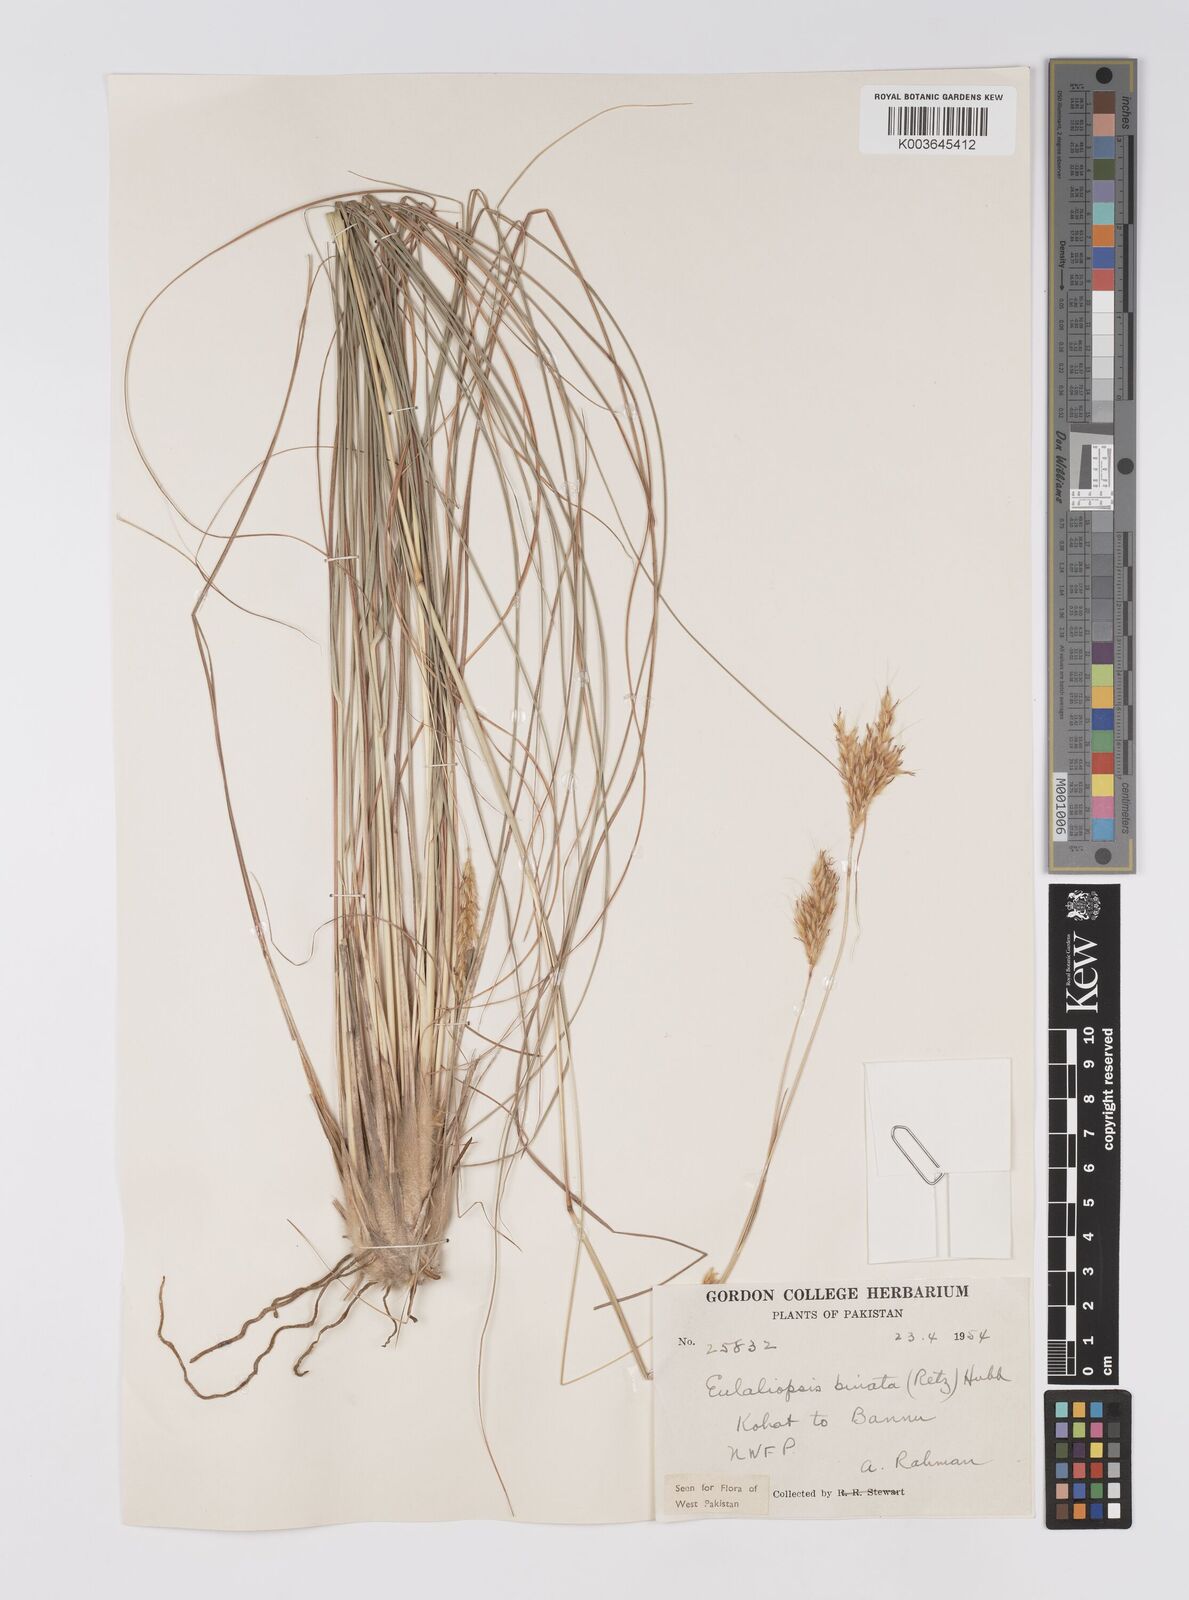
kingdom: Plantae
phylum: Tracheophyta
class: Liliopsida
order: Poales
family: Poaceae
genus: Eulaliopsis
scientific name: Eulaliopsis binata
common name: Baib grass
